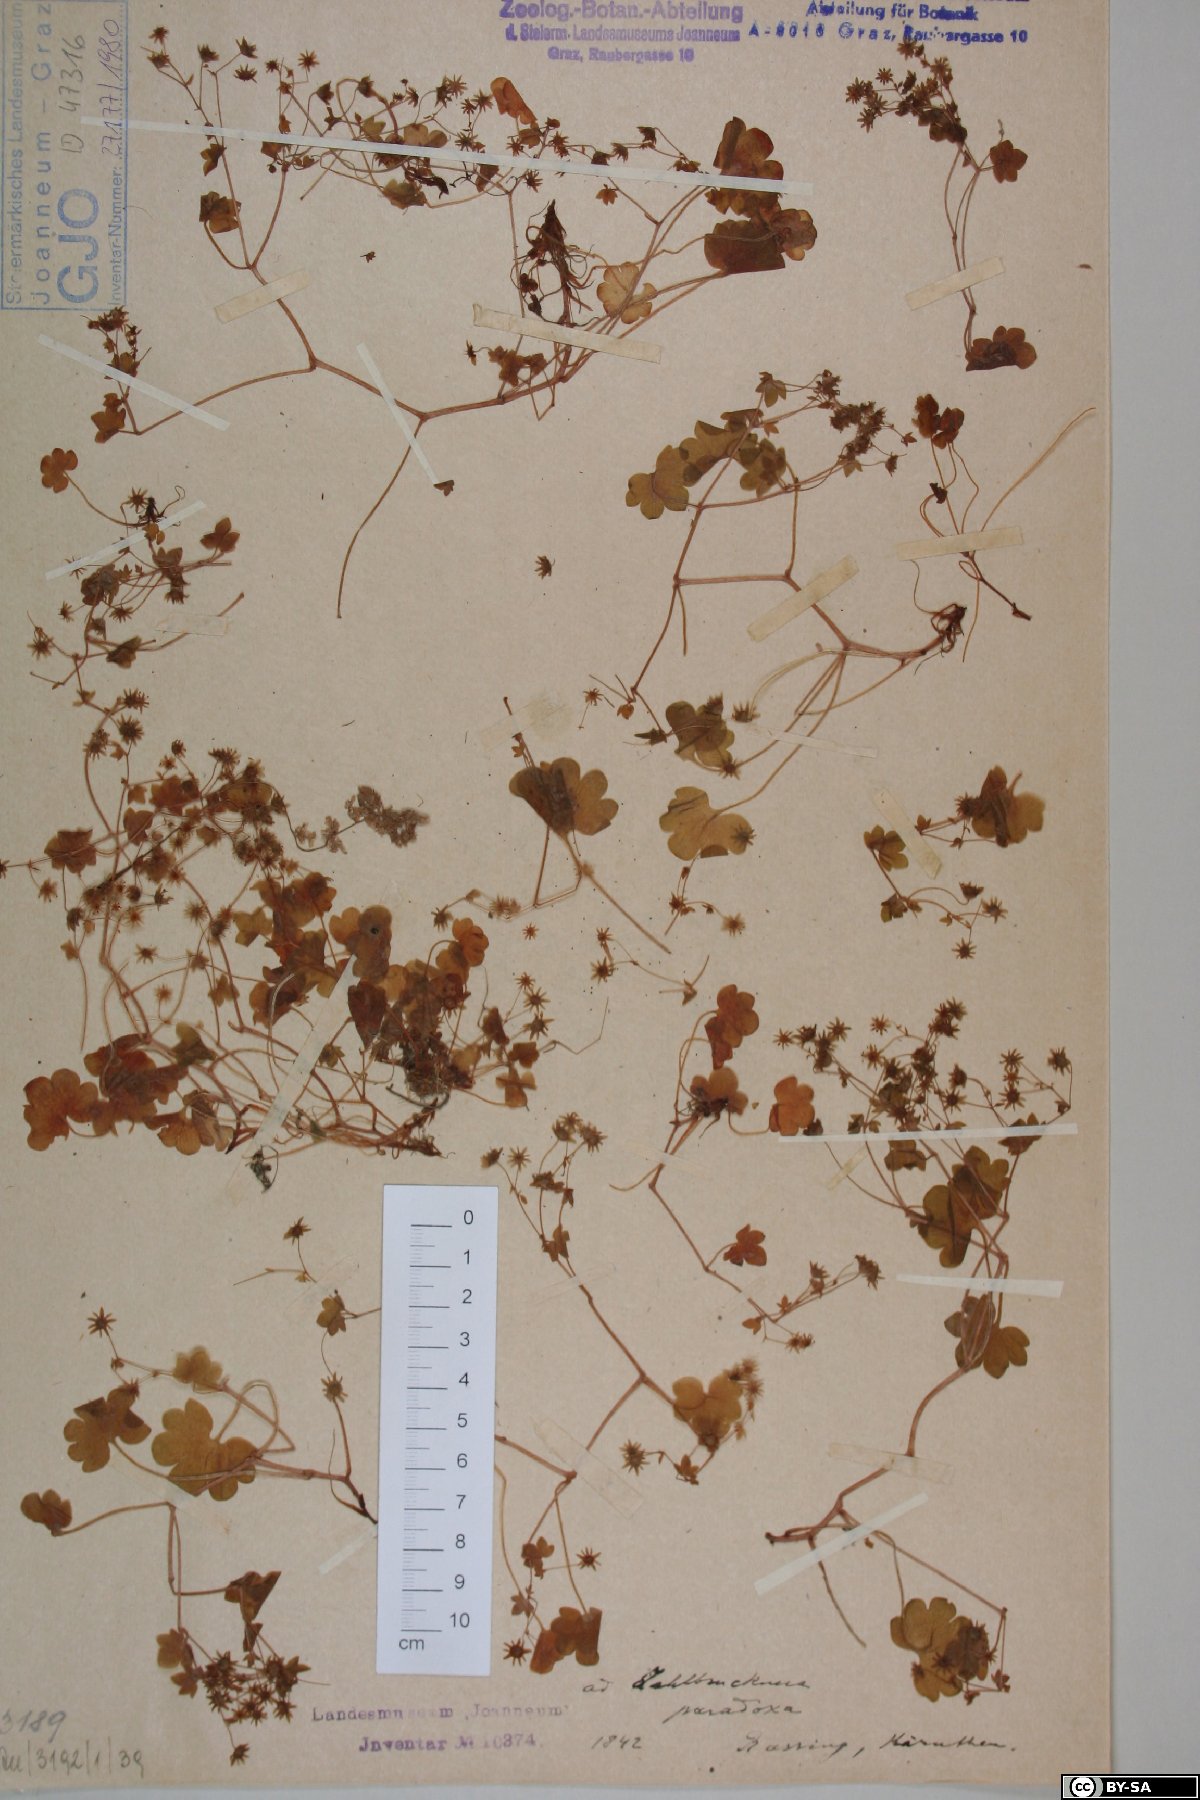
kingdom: Plantae
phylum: Tracheophyta
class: Magnoliopsida
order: Saxifragales
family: Saxifragaceae
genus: Saxifraga
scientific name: Saxifraga paradoxa
